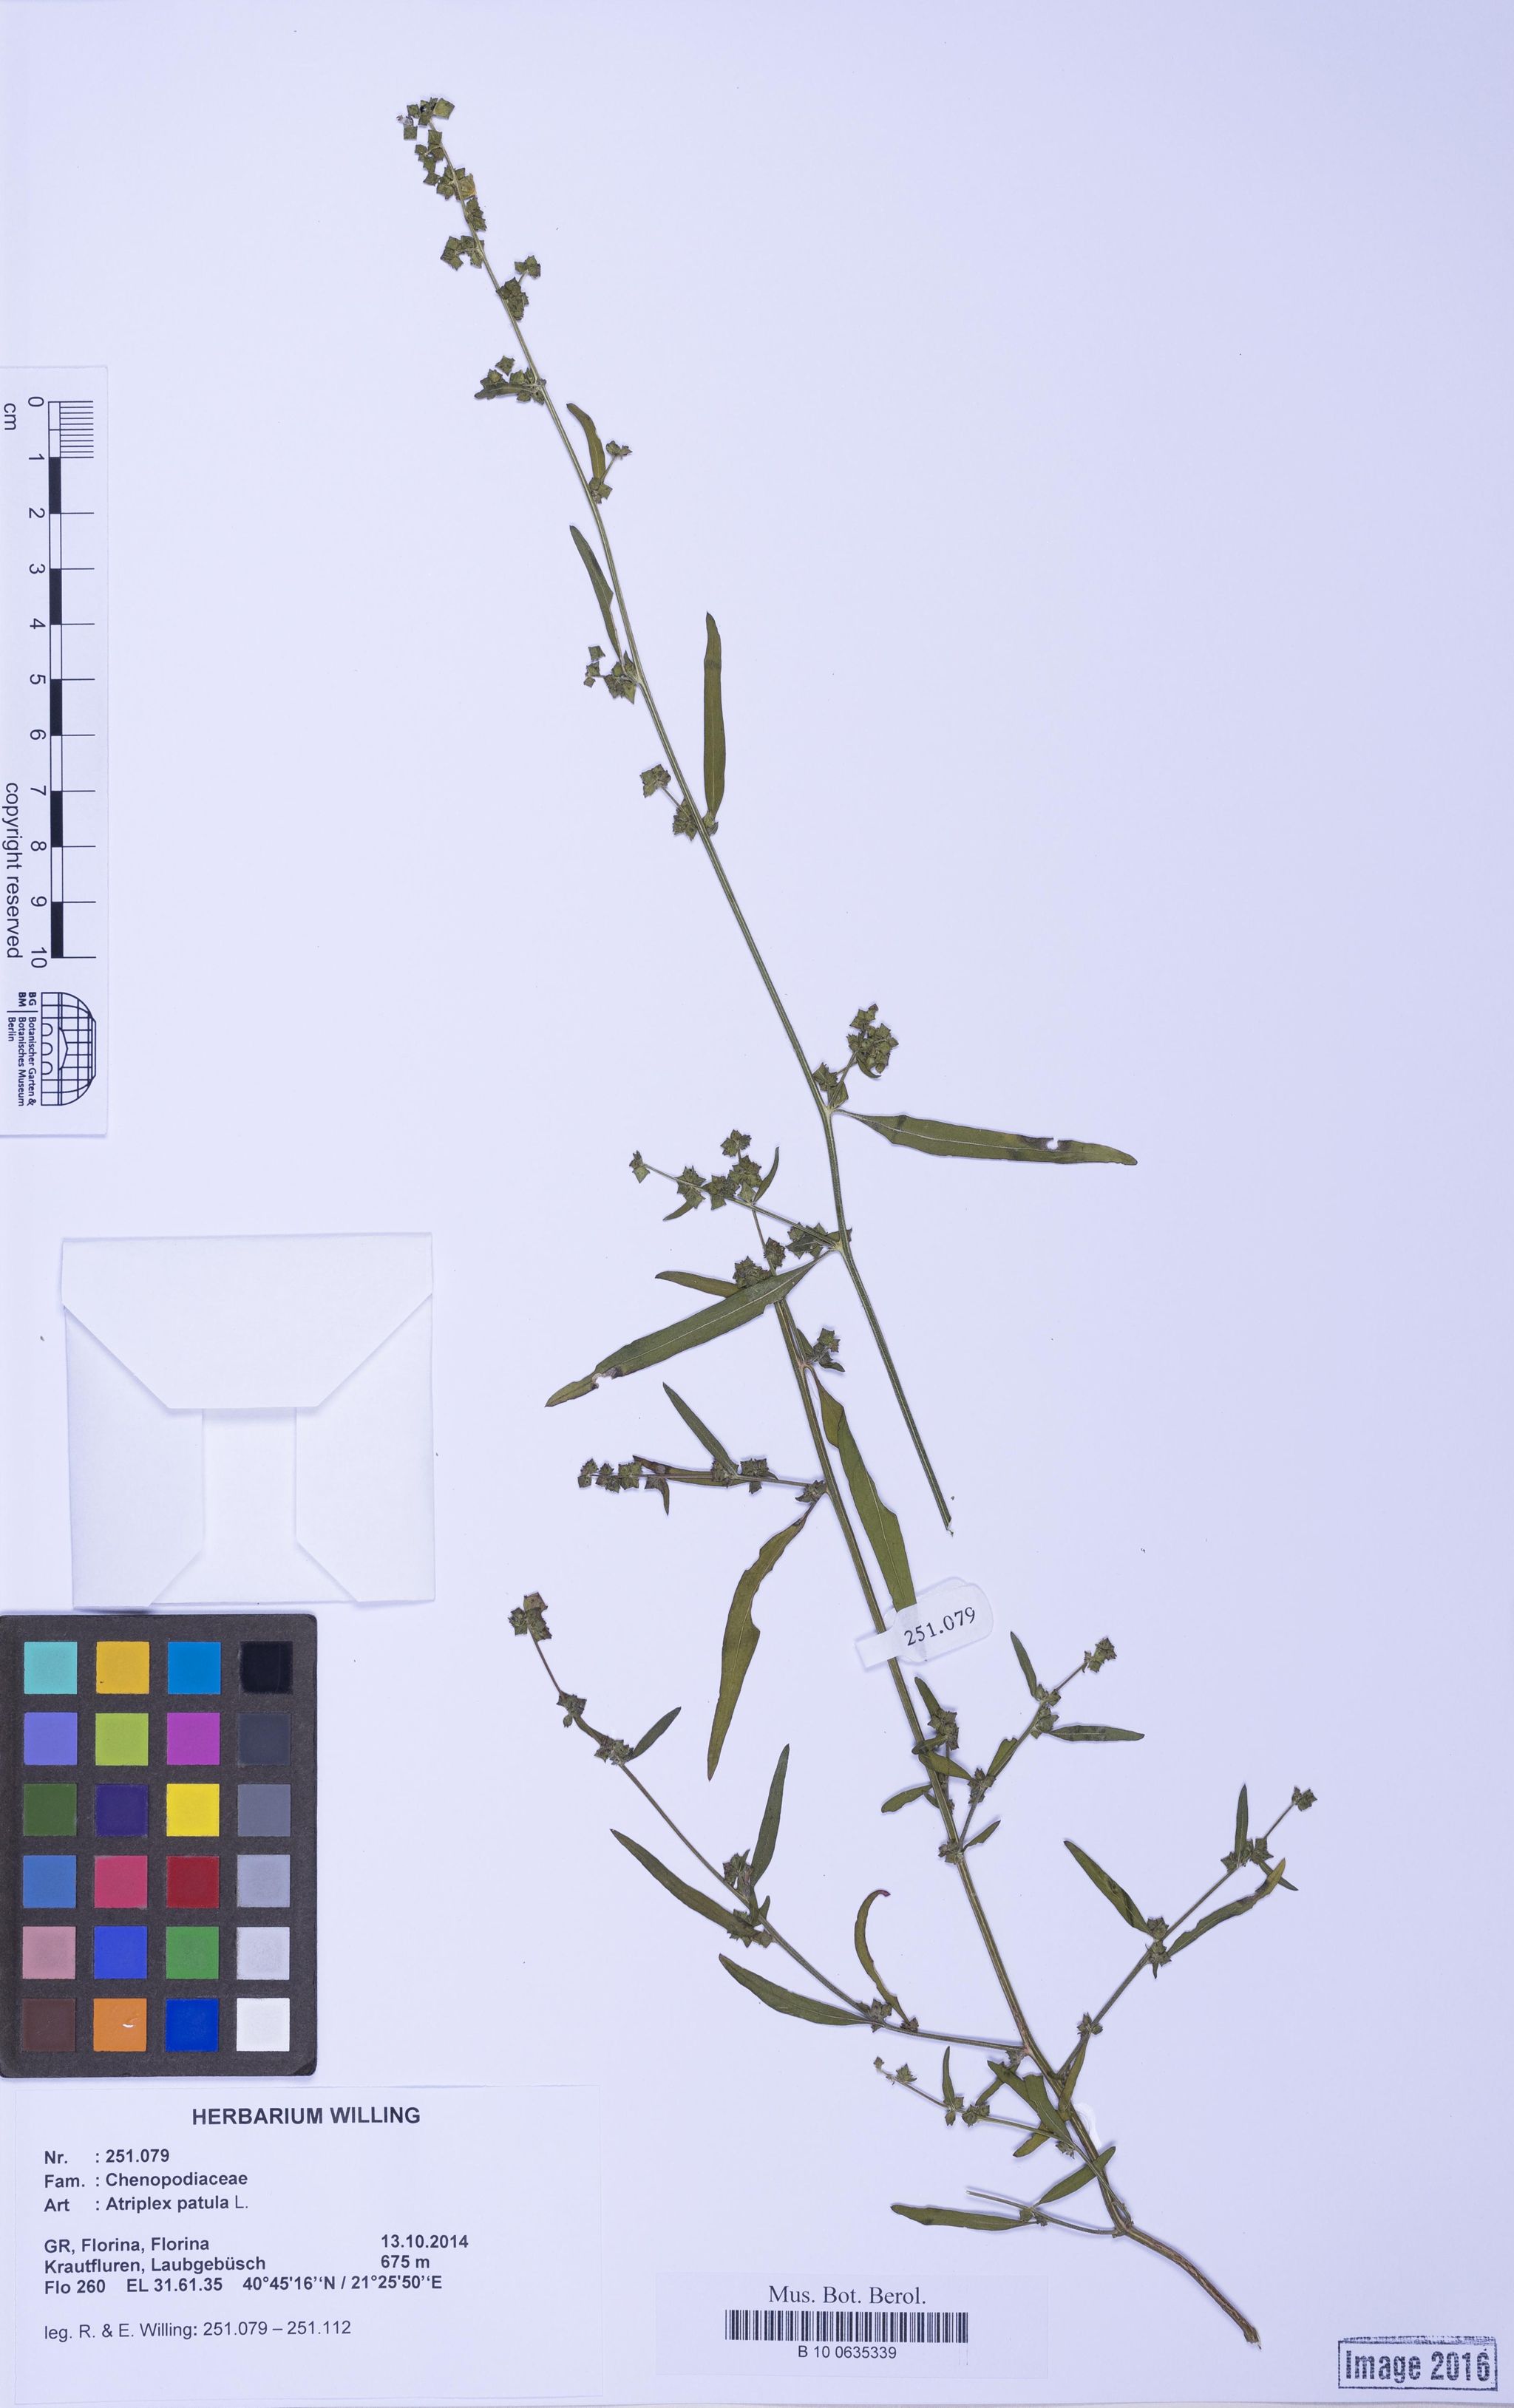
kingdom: Plantae
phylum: Tracheophyta
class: Magnoliopsida
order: Caryophyllales
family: Amaranthaceae
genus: Atriplex
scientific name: Atriplex patula
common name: Common orache
